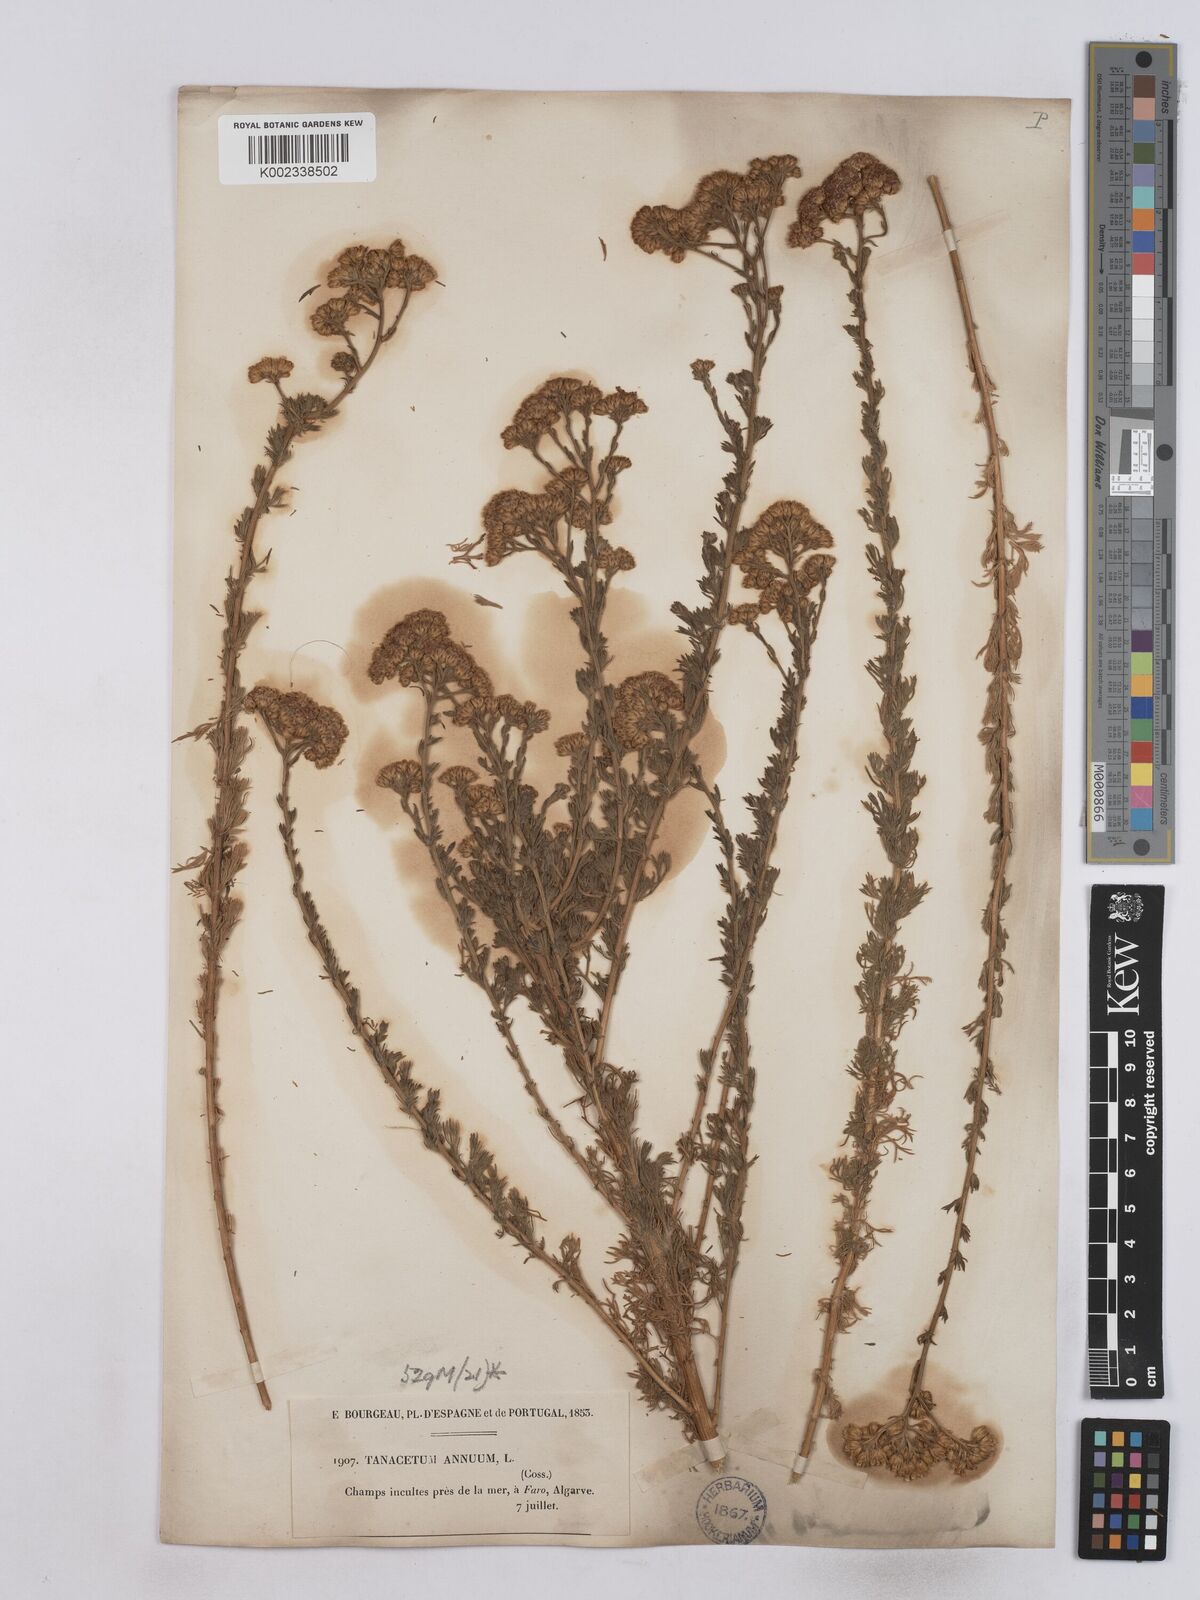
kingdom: Plantae
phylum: Tracheophyta
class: Magnoliopsida
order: Asterales
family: Asteraceae
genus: Vogtia
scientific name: Vogtia annua
